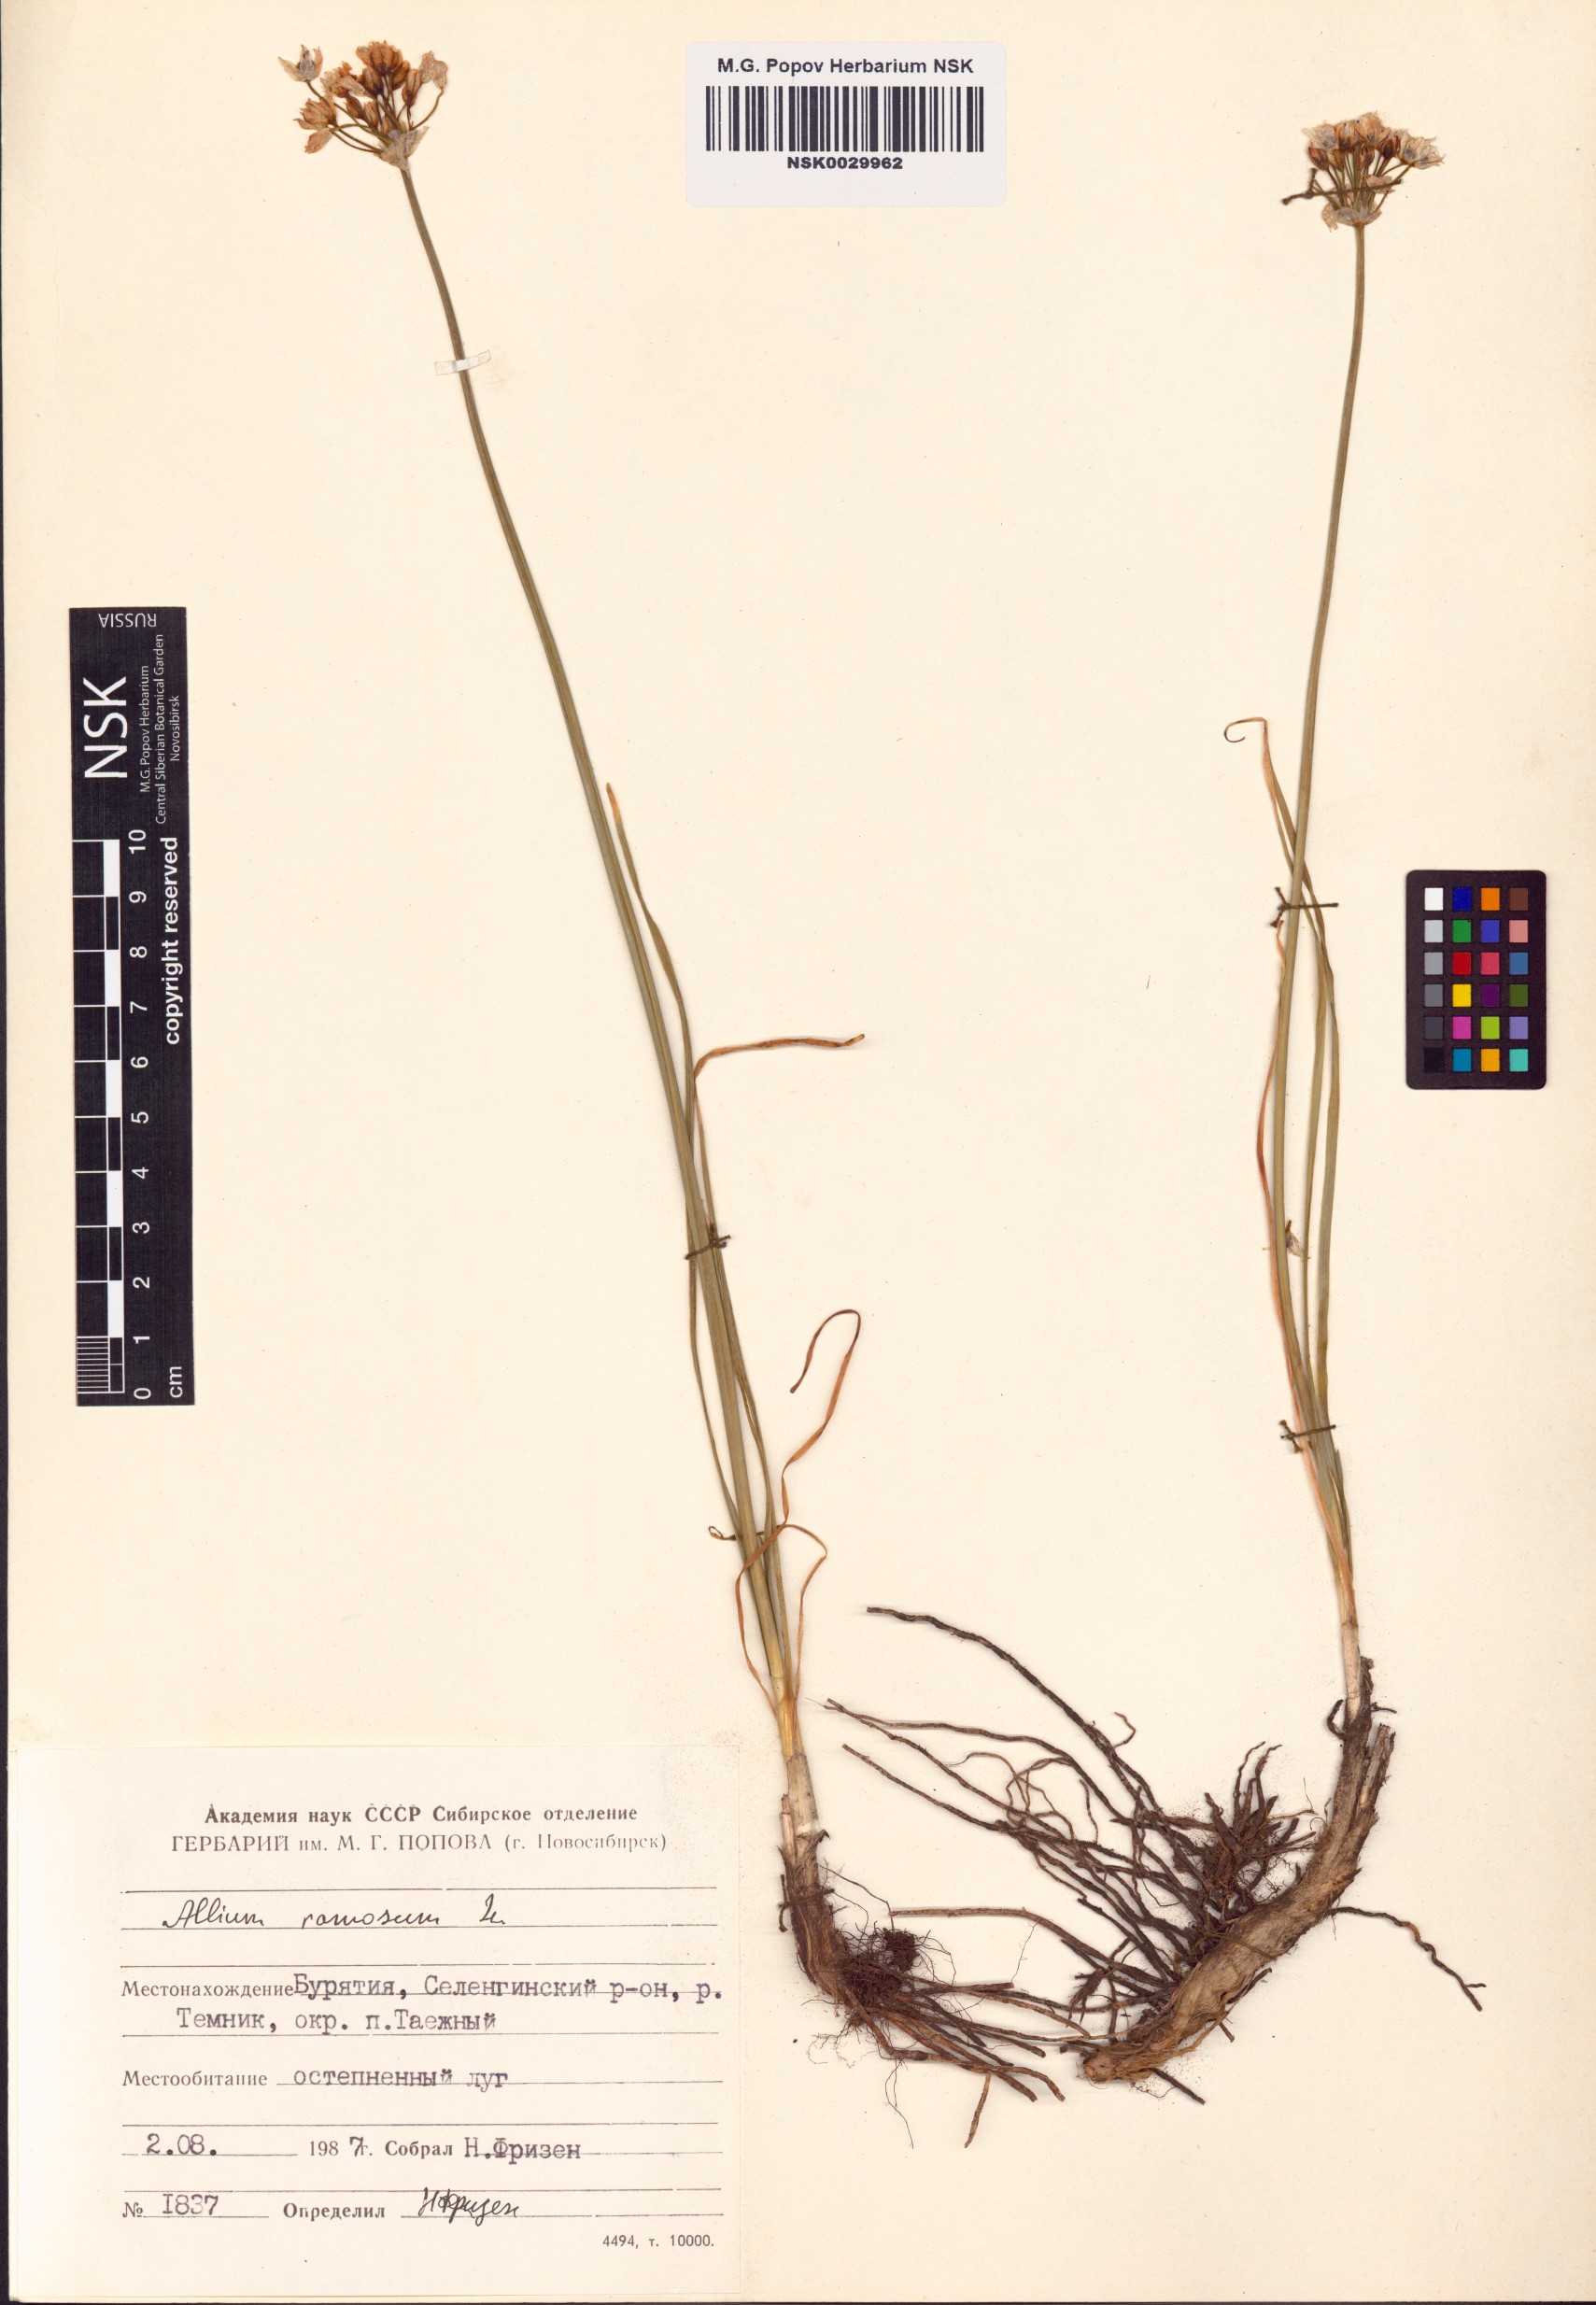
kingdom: Plantae
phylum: Tracheophyta
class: Liliopsida
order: Asparagales
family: Amaryllidaceae
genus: Allium
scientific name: Allium ramosum
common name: Fragrant garlic
